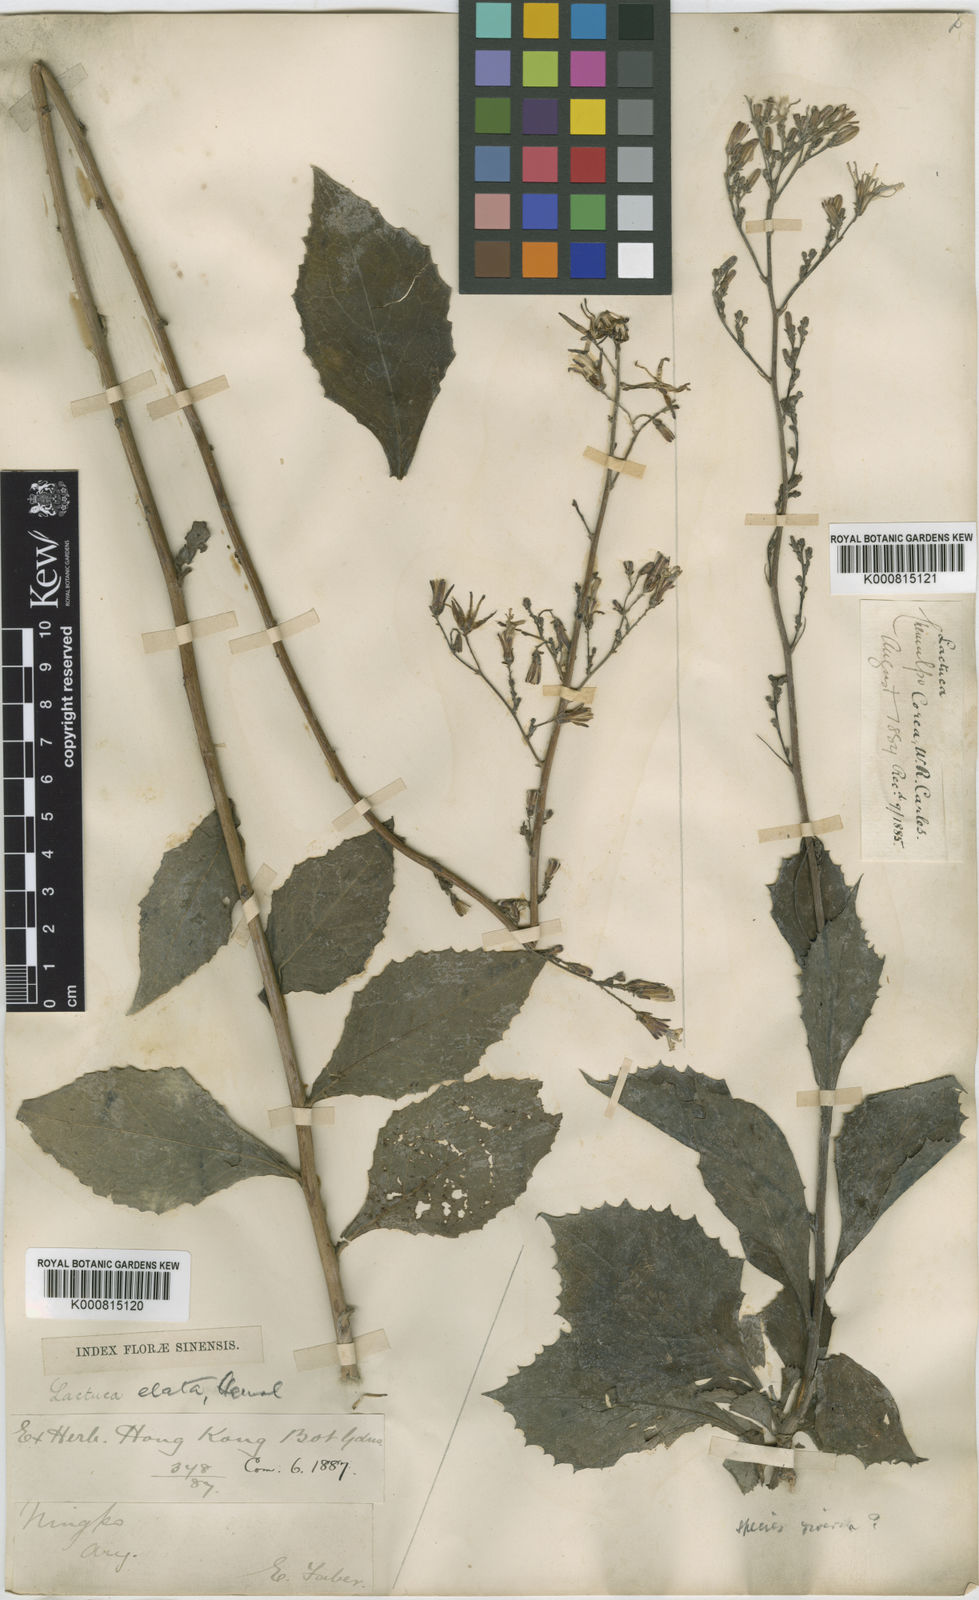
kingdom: Plantae
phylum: Tracheophyta
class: Magnoliopsida
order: Asterales
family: Asteraceae
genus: Lactuca
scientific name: Lactuca raddeana
